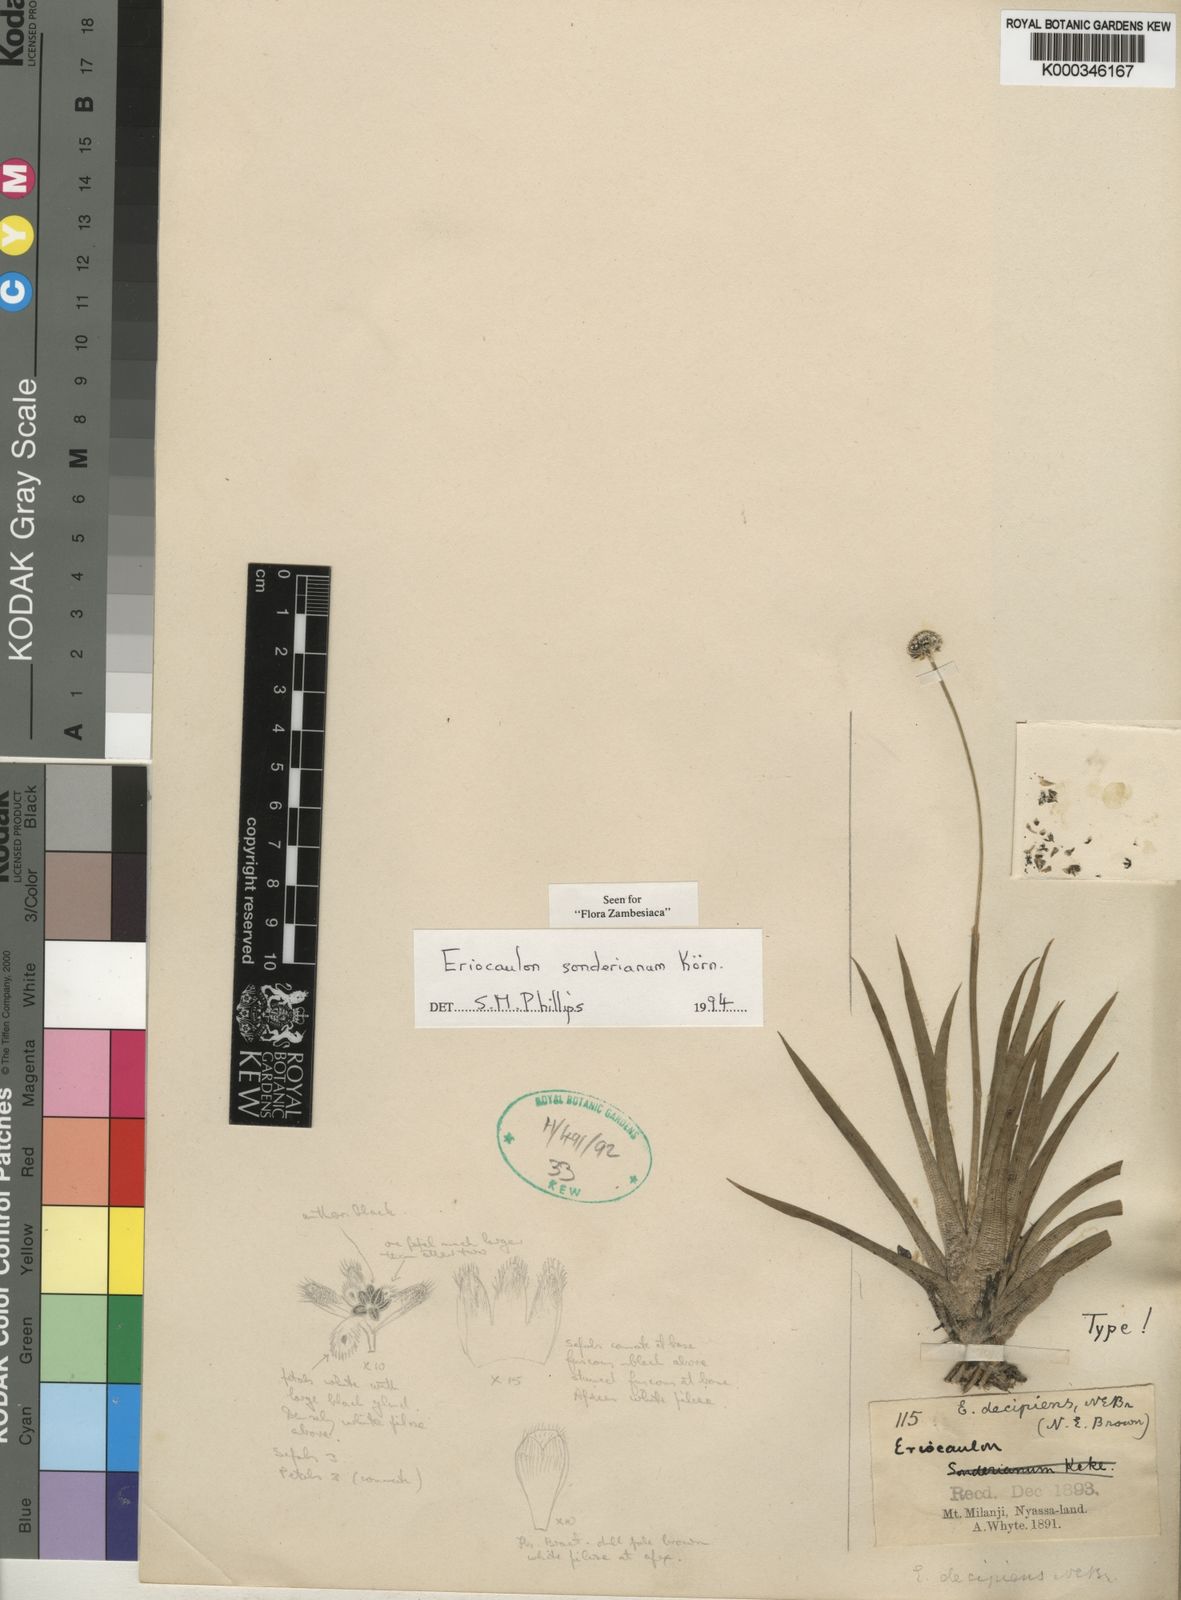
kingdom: Plantae
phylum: Tracheophyta
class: Liliopsida
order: Poales
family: Eriocaulaceae
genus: Eriocaulon
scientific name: Eriocaulon
